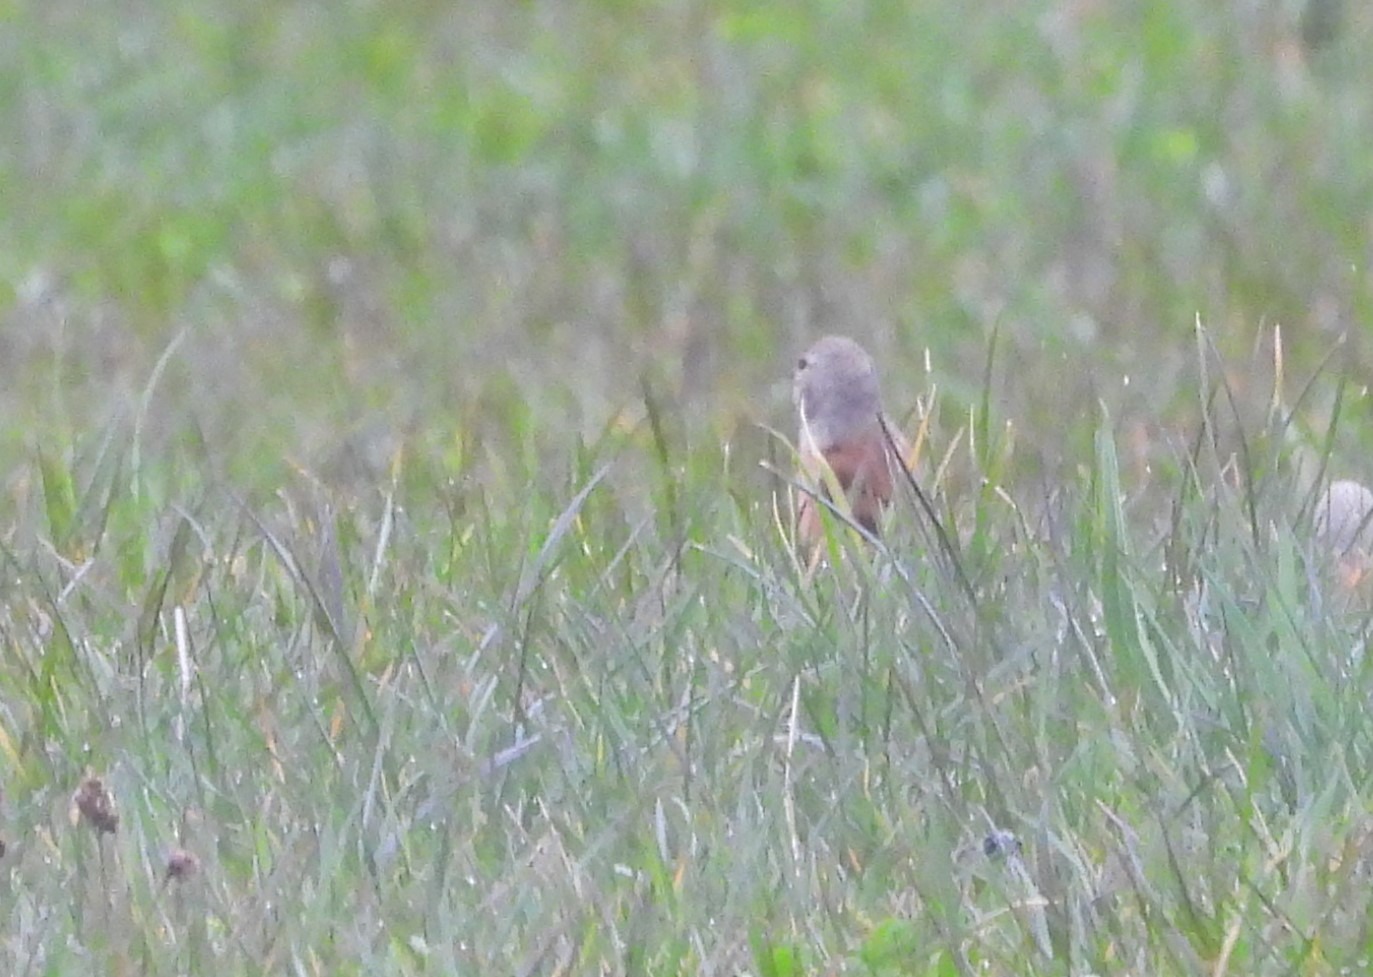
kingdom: Animalia
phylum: Chordata
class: Aves
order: Passeriformes
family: Fringillidae
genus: Linaria
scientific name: Linaria cannabina
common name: Tornirisk
